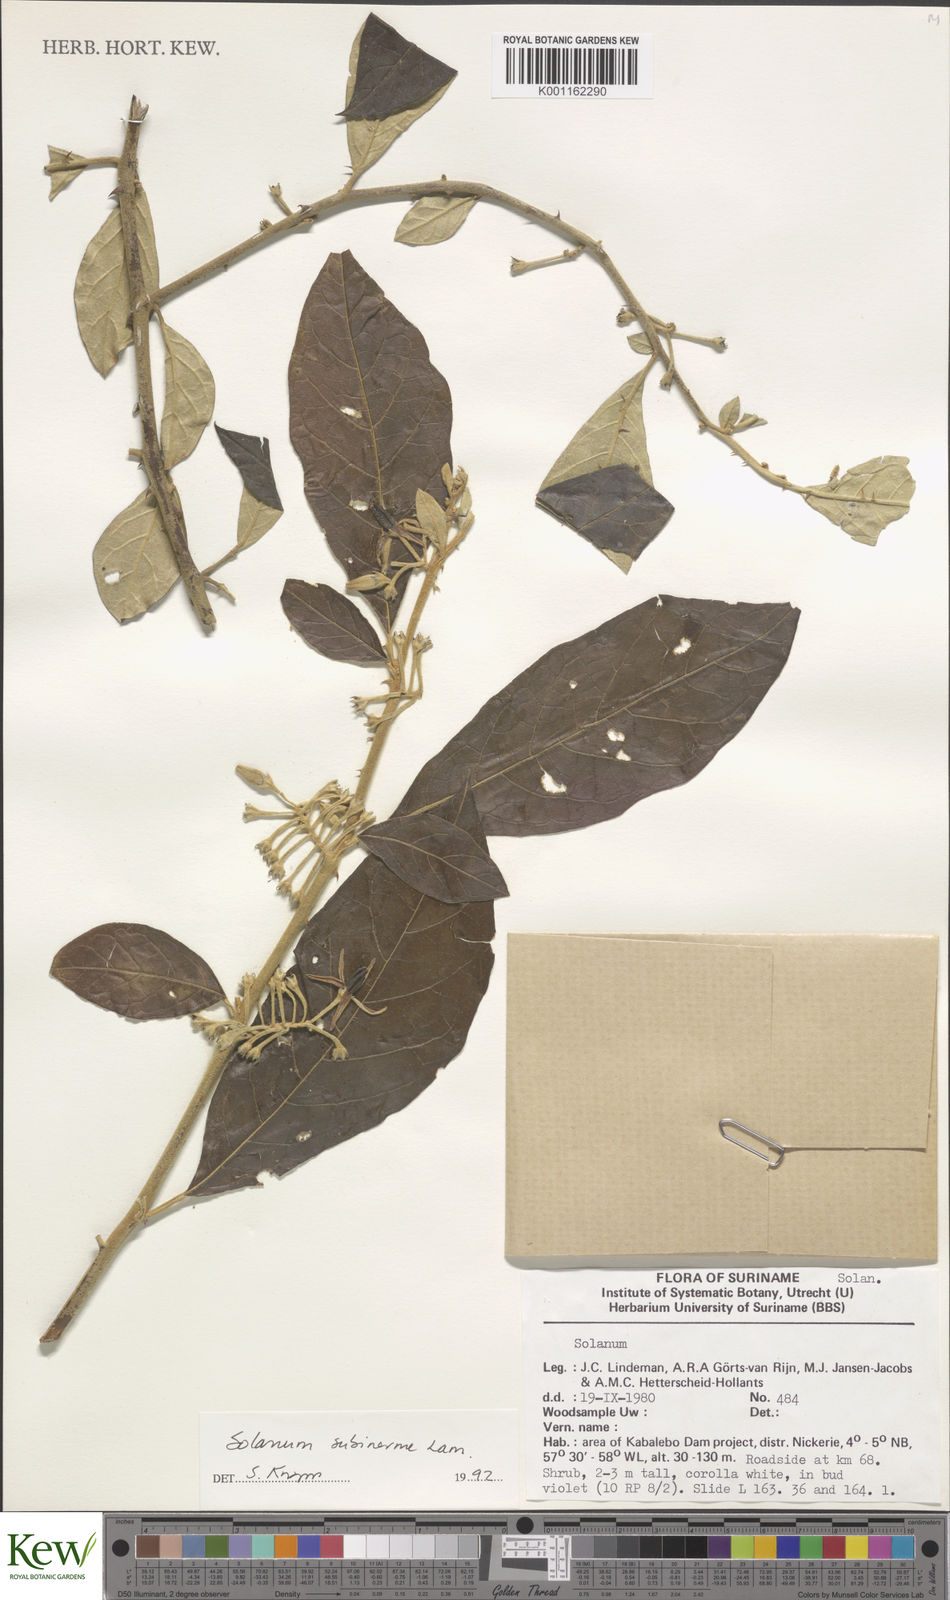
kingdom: Plantae
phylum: Tracheophyta
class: Magnoliopsida
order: Solanales
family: Solanaceae
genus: Solanum
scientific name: Solanum subinerme
